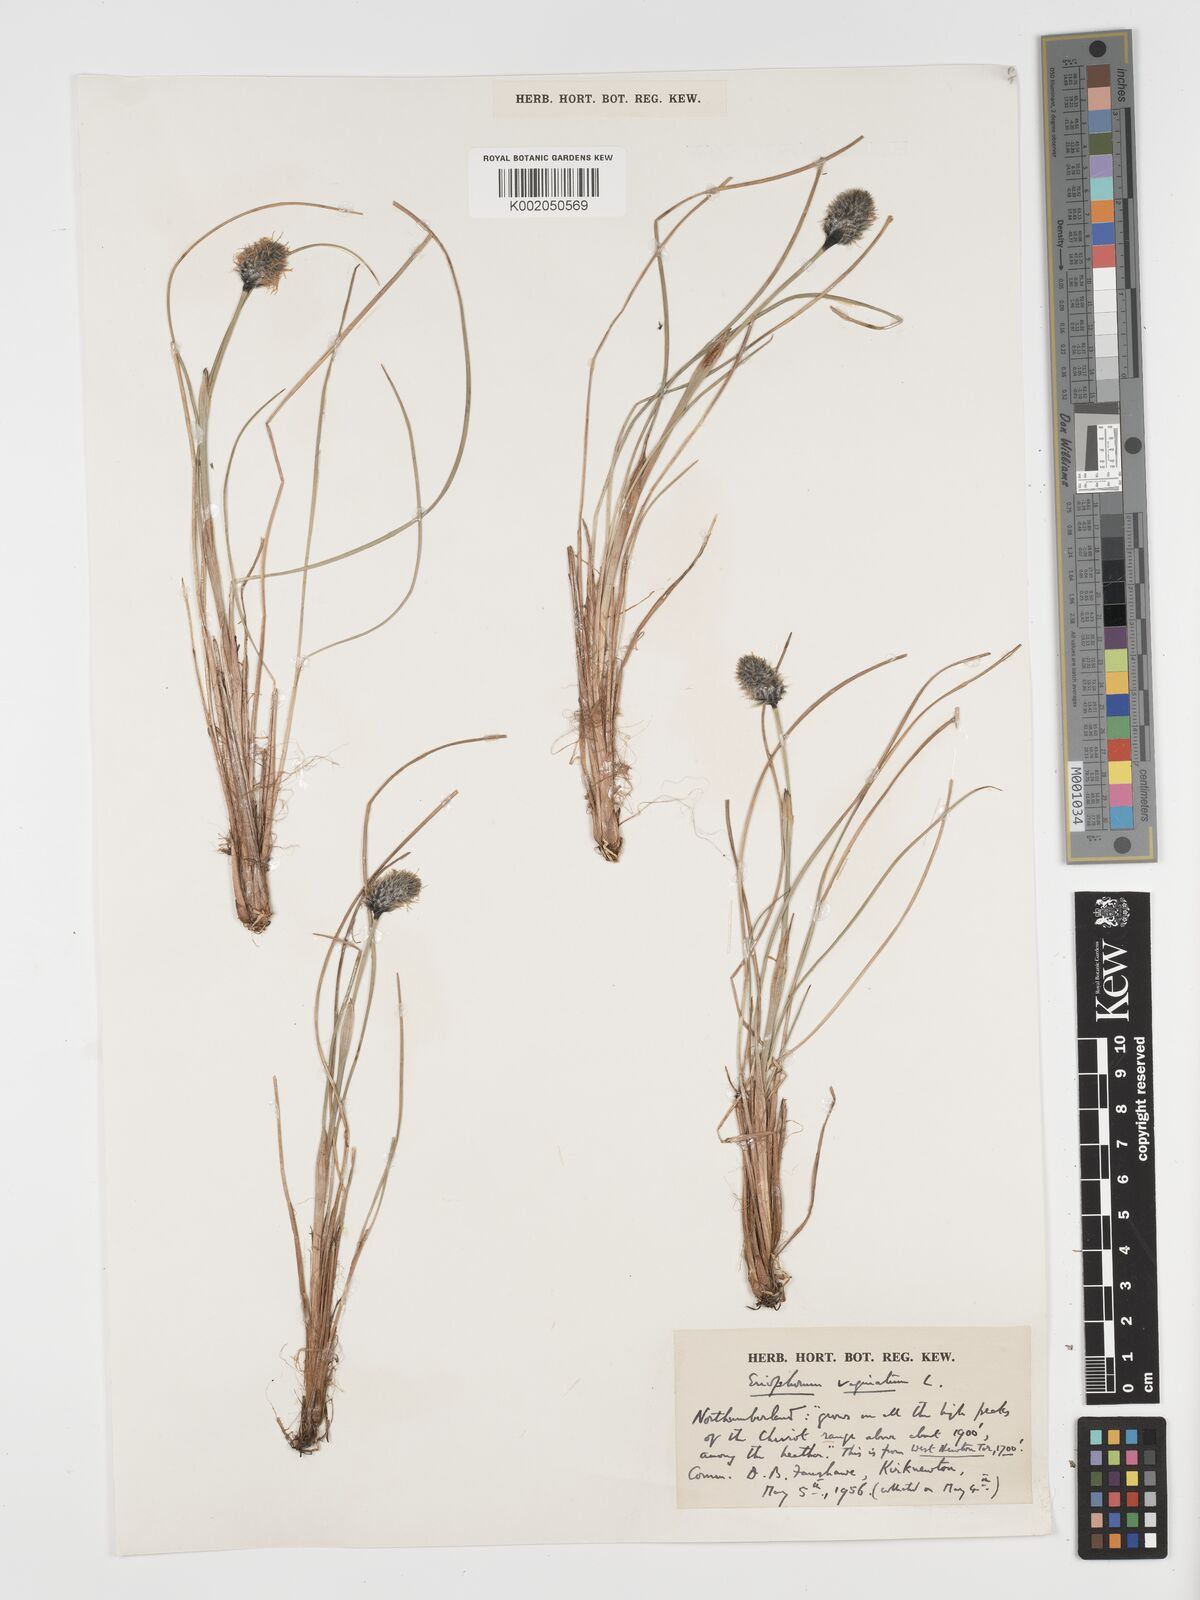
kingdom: Plantae
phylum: Tracheophyta
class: Liliopsida
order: Poales
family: Cyperaceae
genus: Eriophorum
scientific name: Eriophorum vaginatum
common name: Hare's-tail cottongrass
